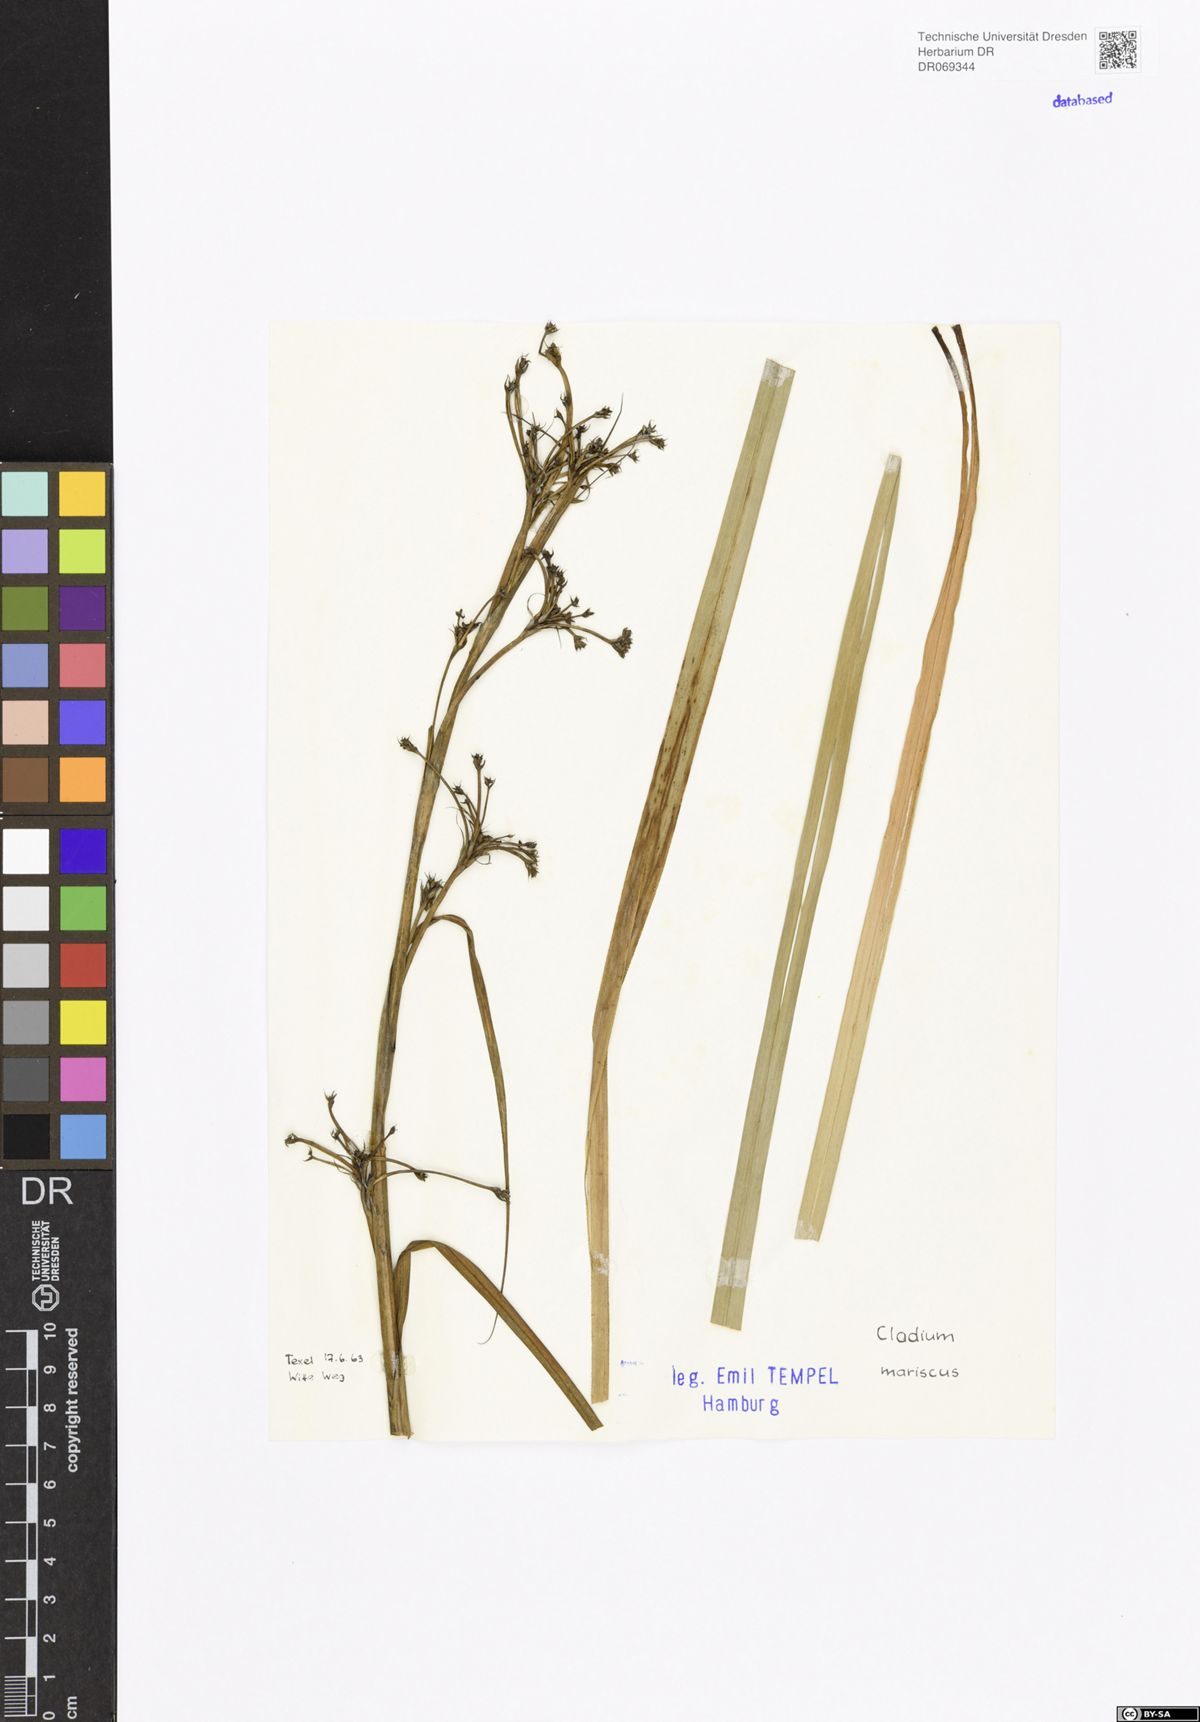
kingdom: Plantae
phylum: Tracheophyta
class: Liliopsida
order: Poales
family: Cyperaceae
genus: Cladium
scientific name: Cladium mariscus
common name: Great fen-sedge
